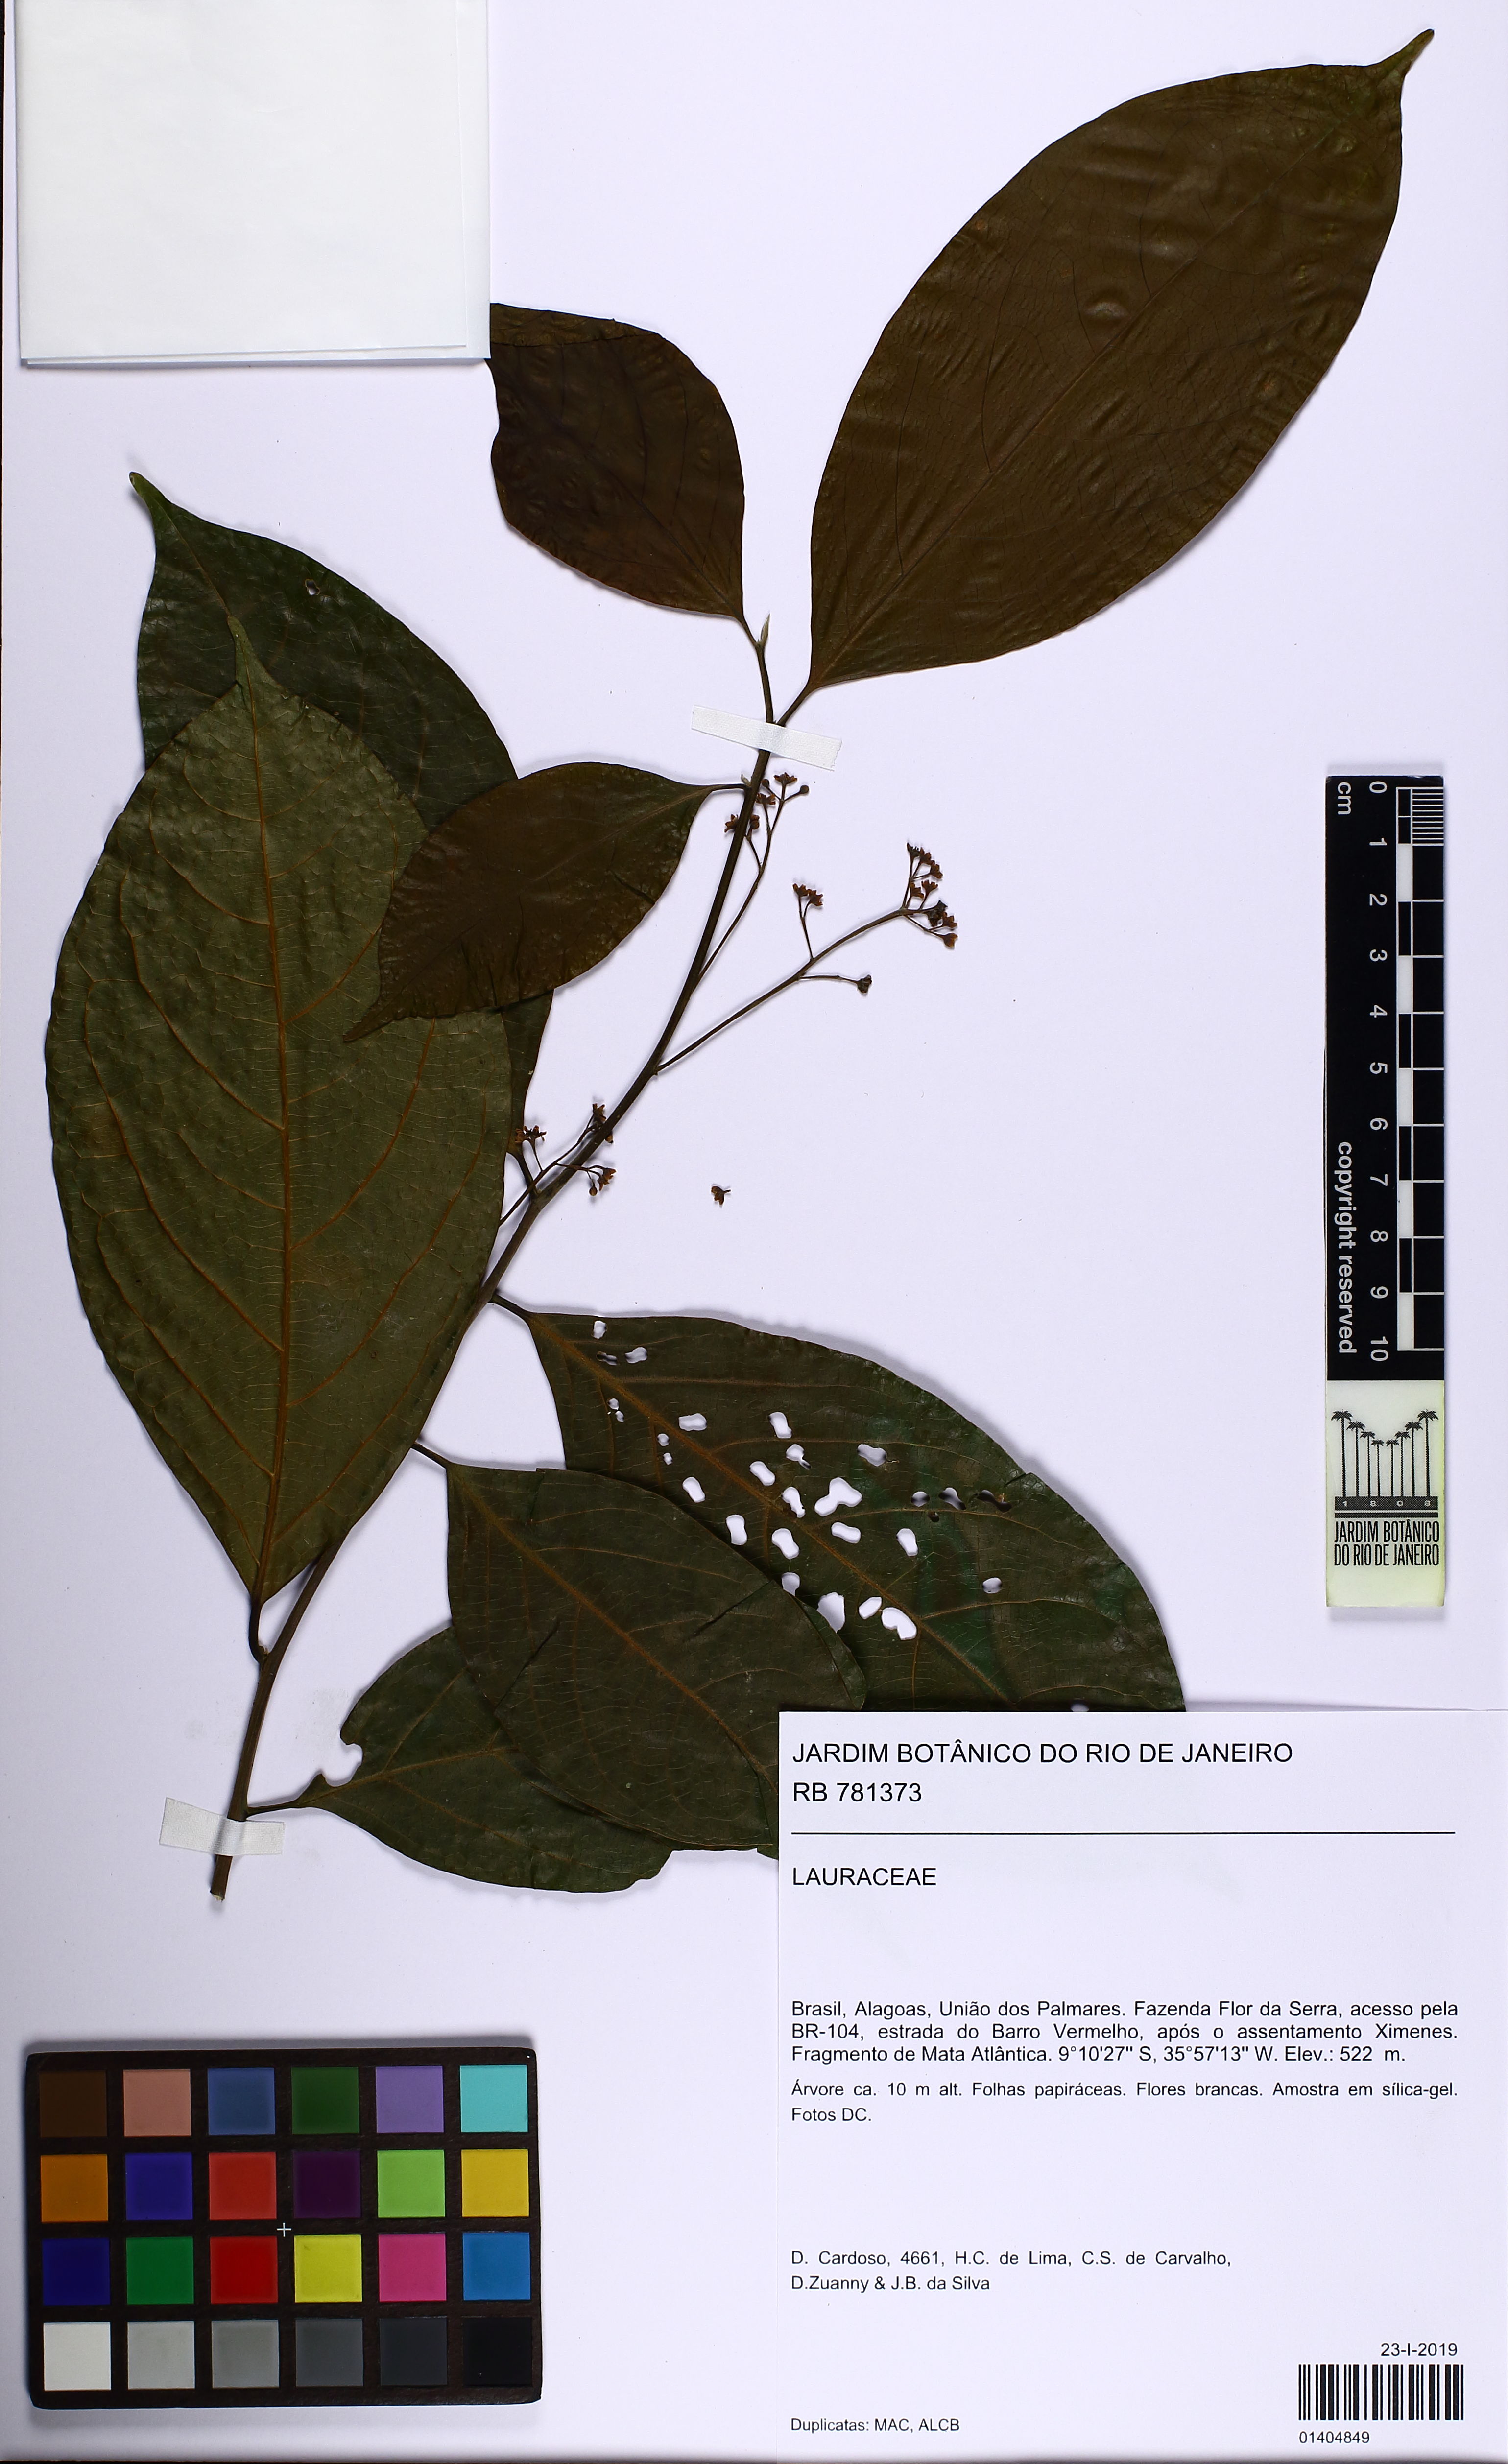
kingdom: Plantae
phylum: Tracheophyta
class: Magnoliopsida
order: Laurales
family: Lauraceae
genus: Nectandra
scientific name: Nectandra
